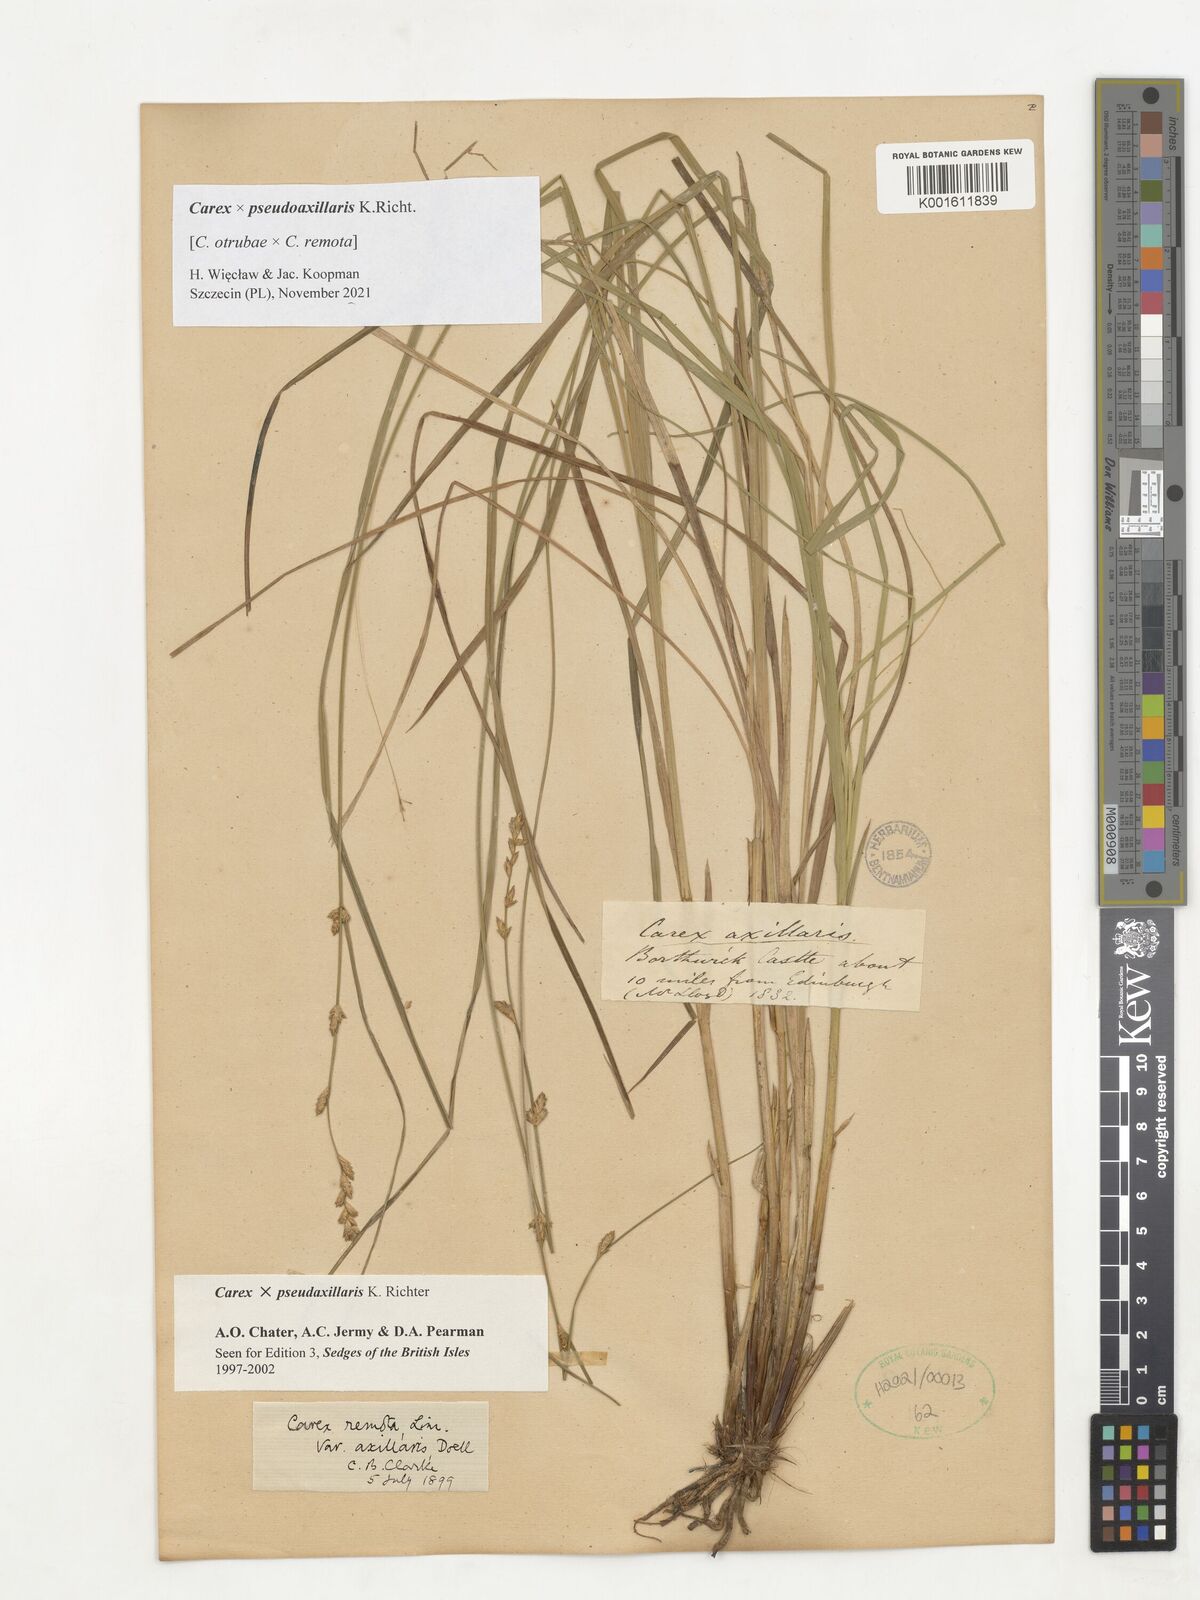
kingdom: Plantae
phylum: Tracheophyta
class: Liliopsida
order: Poales
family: Cyperaceae
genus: Carex
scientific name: Carex pseudoaxillaris
